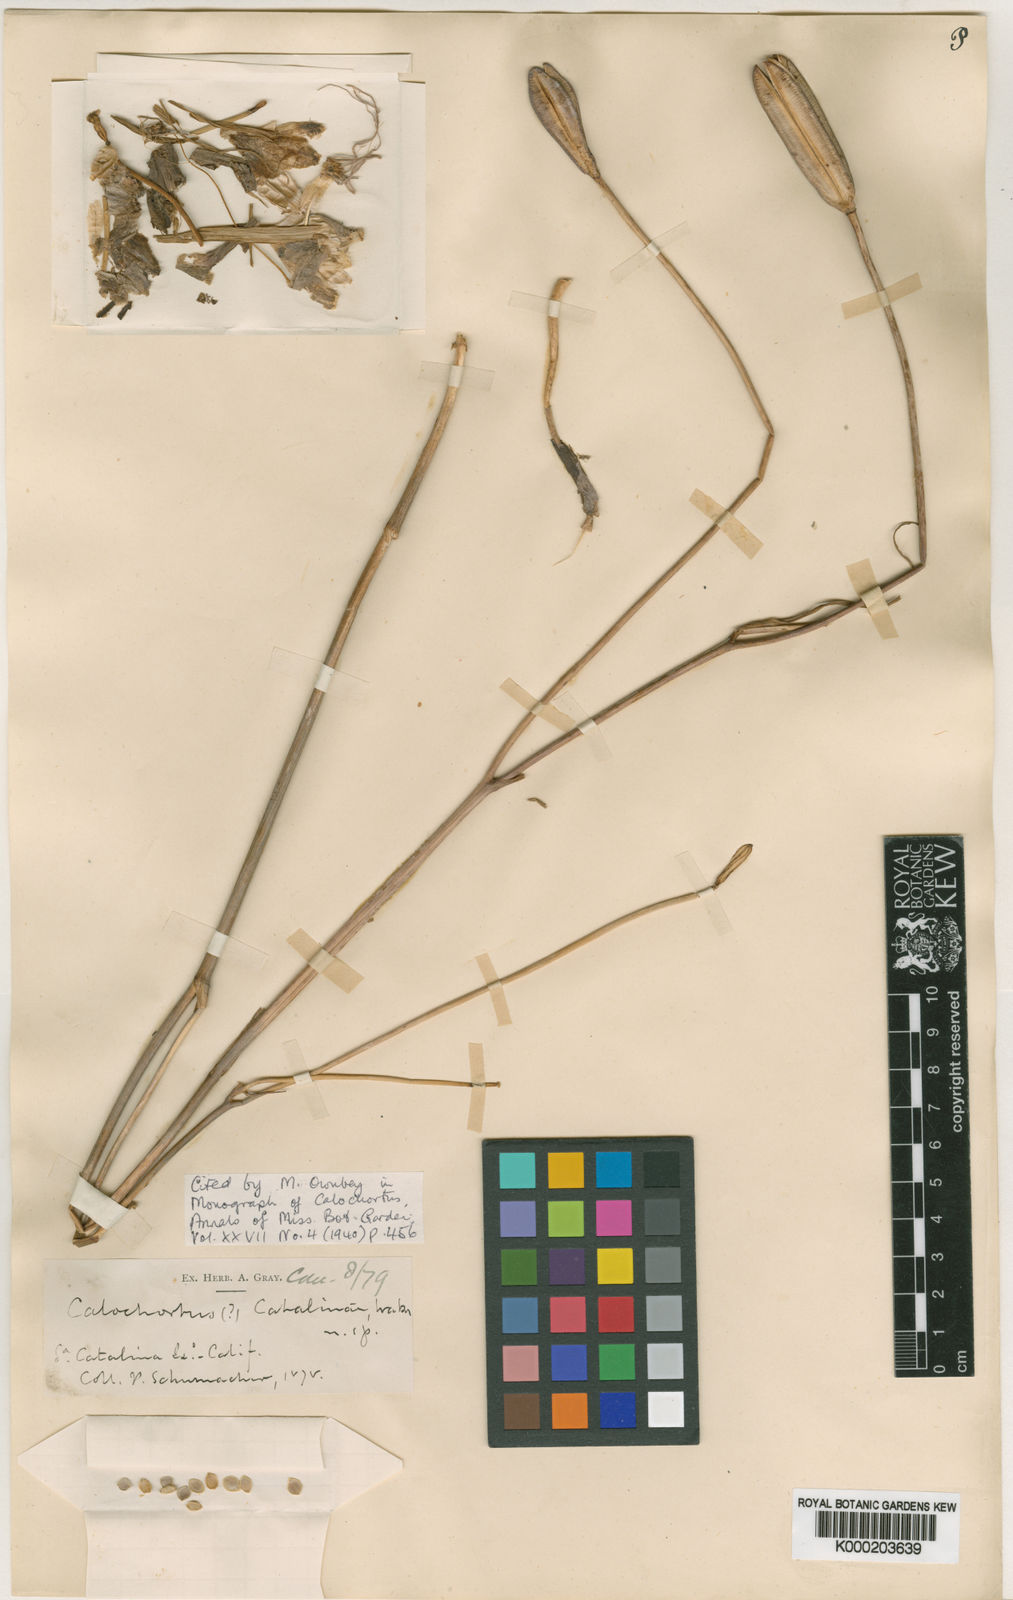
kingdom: Plantae
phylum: Tracheophyta
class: Liliopsida
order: Liliales
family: Liliaceae
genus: Calochortus
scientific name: Calochortus catalinae
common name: Catalina mariposa-lily
